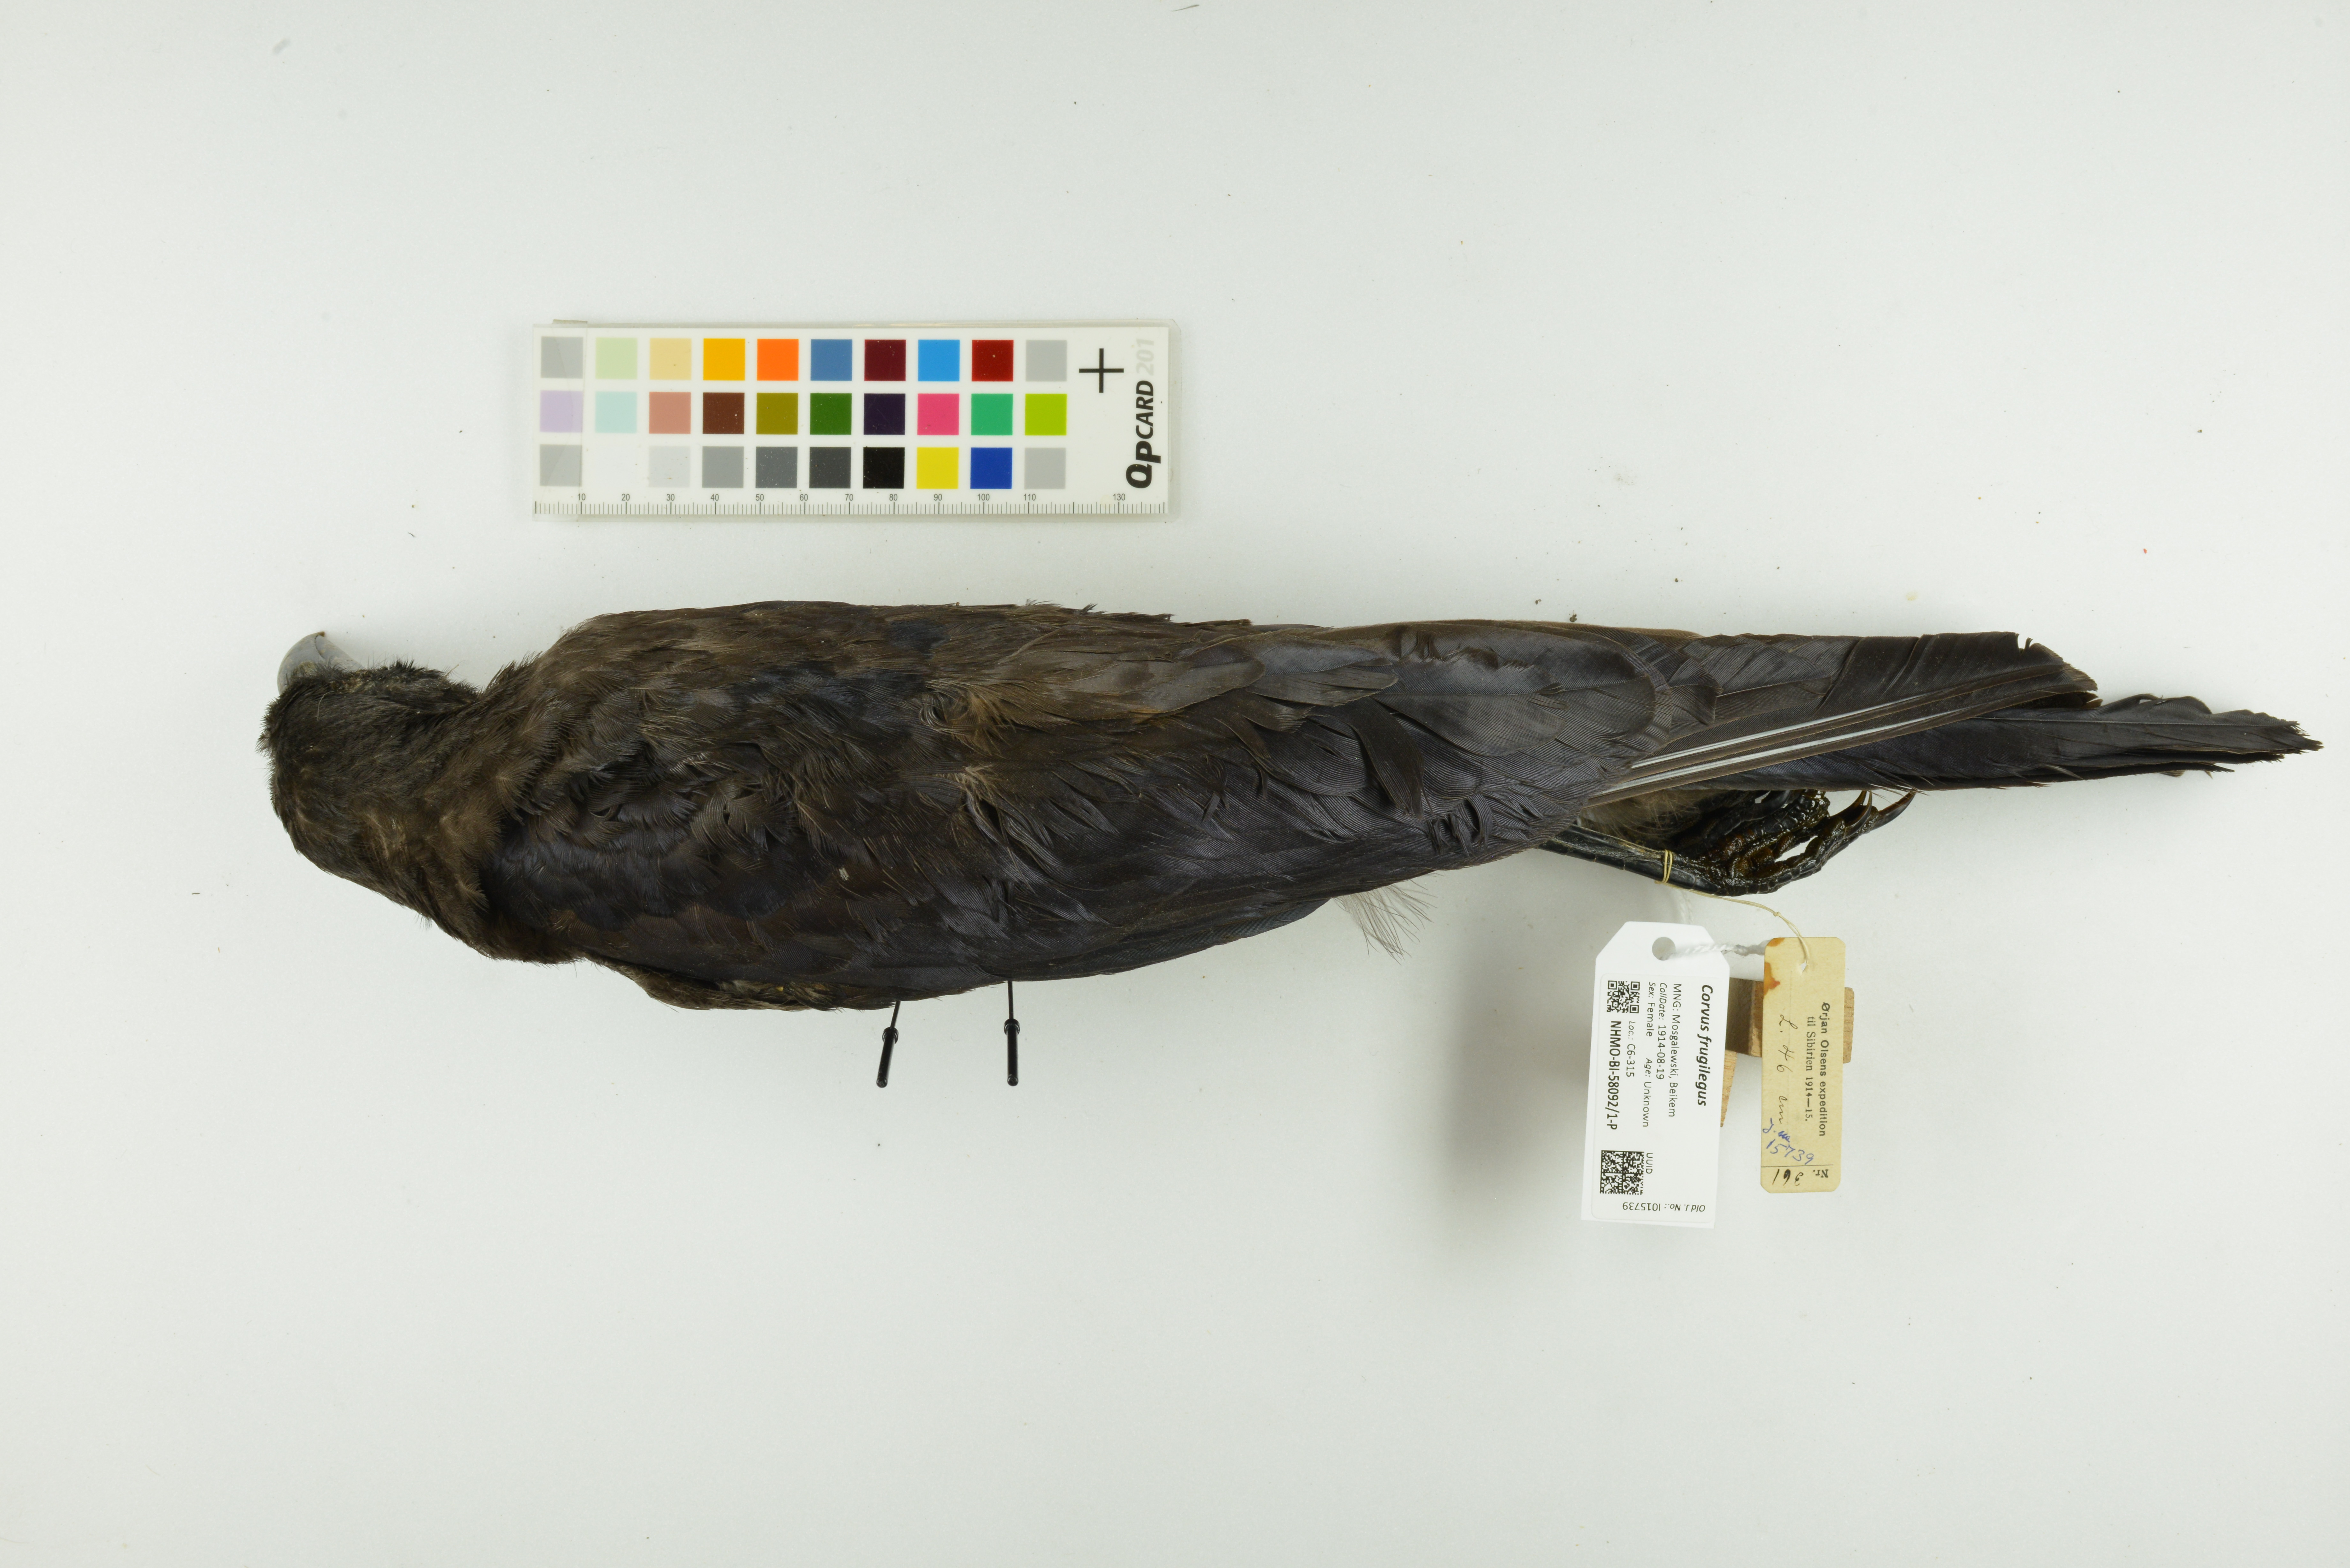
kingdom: Animalia
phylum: Chordata
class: Aves
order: Passeriformes
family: Corvidae
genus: Corvus
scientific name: Corvus frugilegus
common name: Rook
